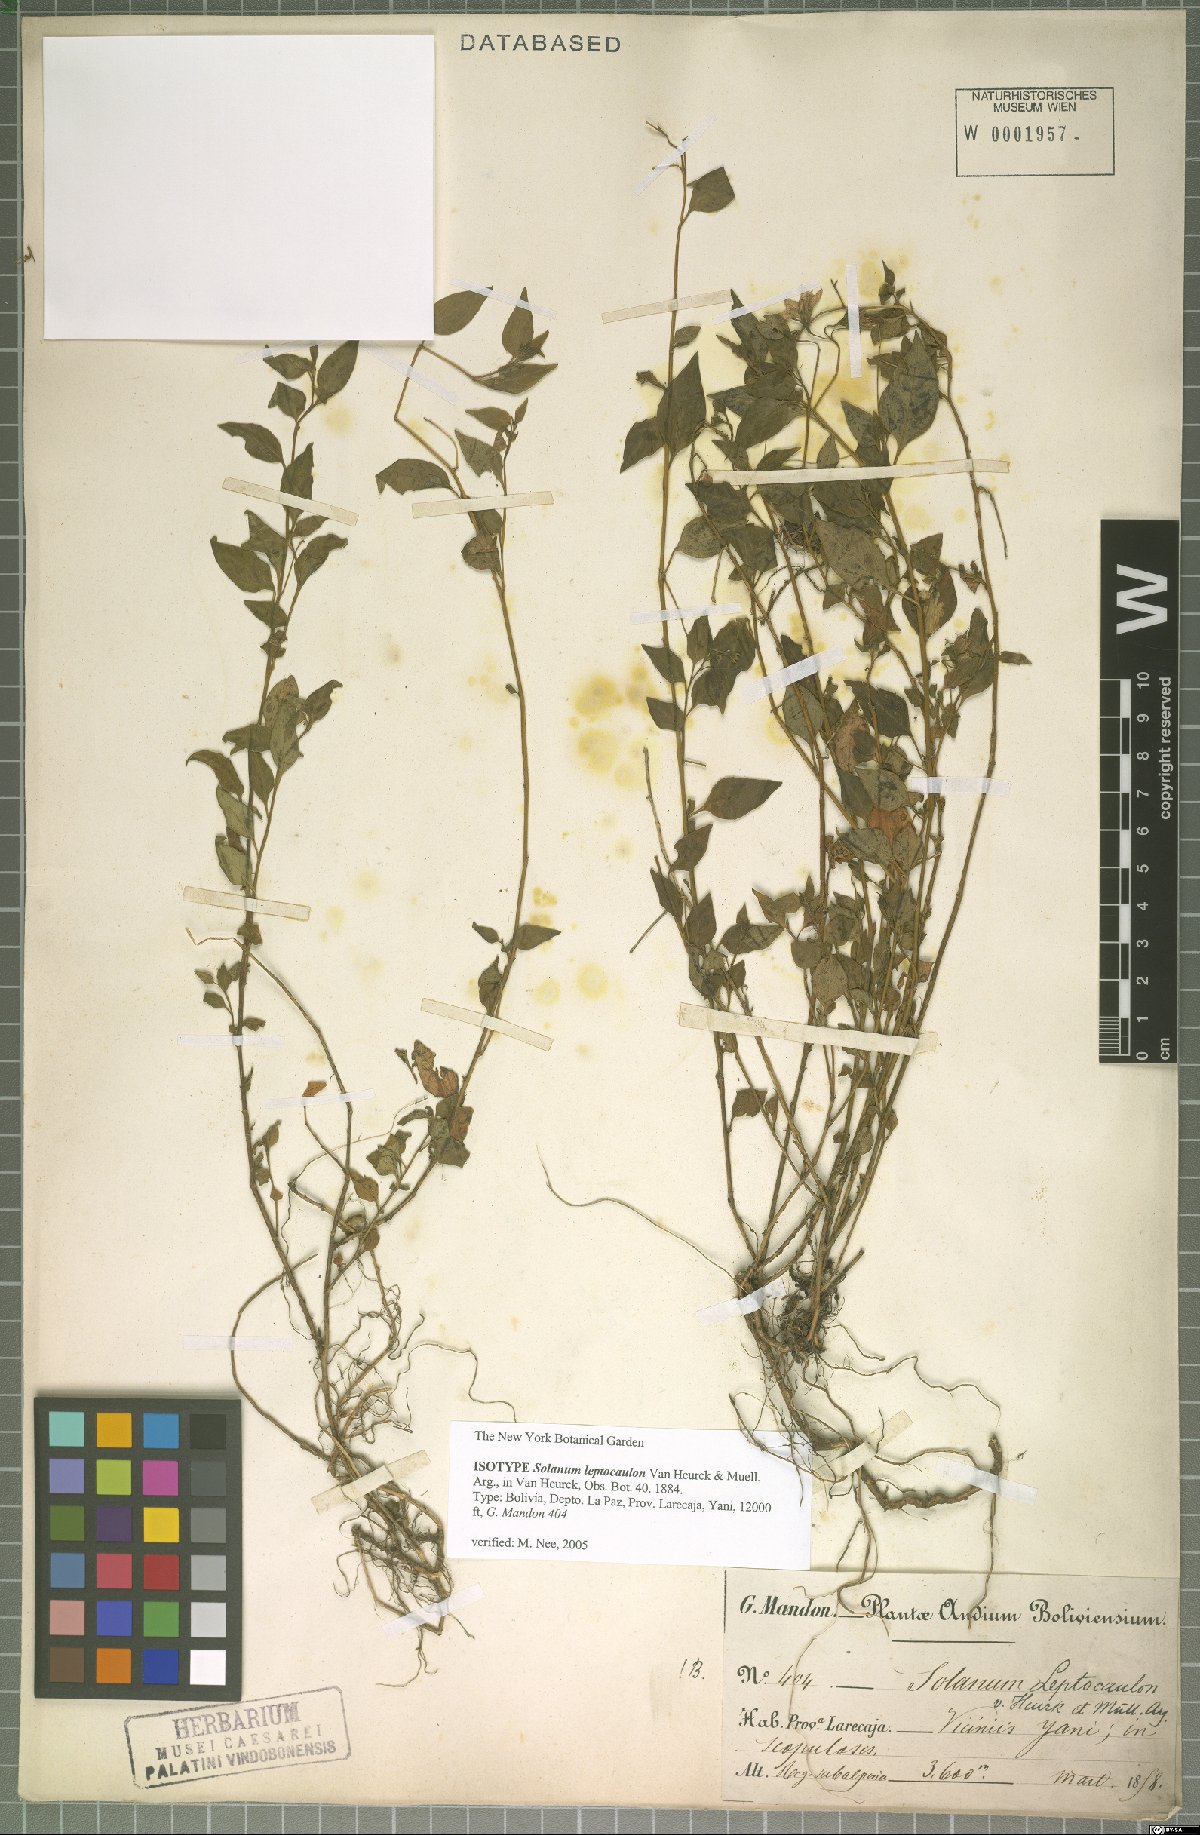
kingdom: Plantae
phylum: Tracheophyta
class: Magnoliopsida
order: Solanales
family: Solanaceae
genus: Solanum
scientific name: Solanum leptocaulon
